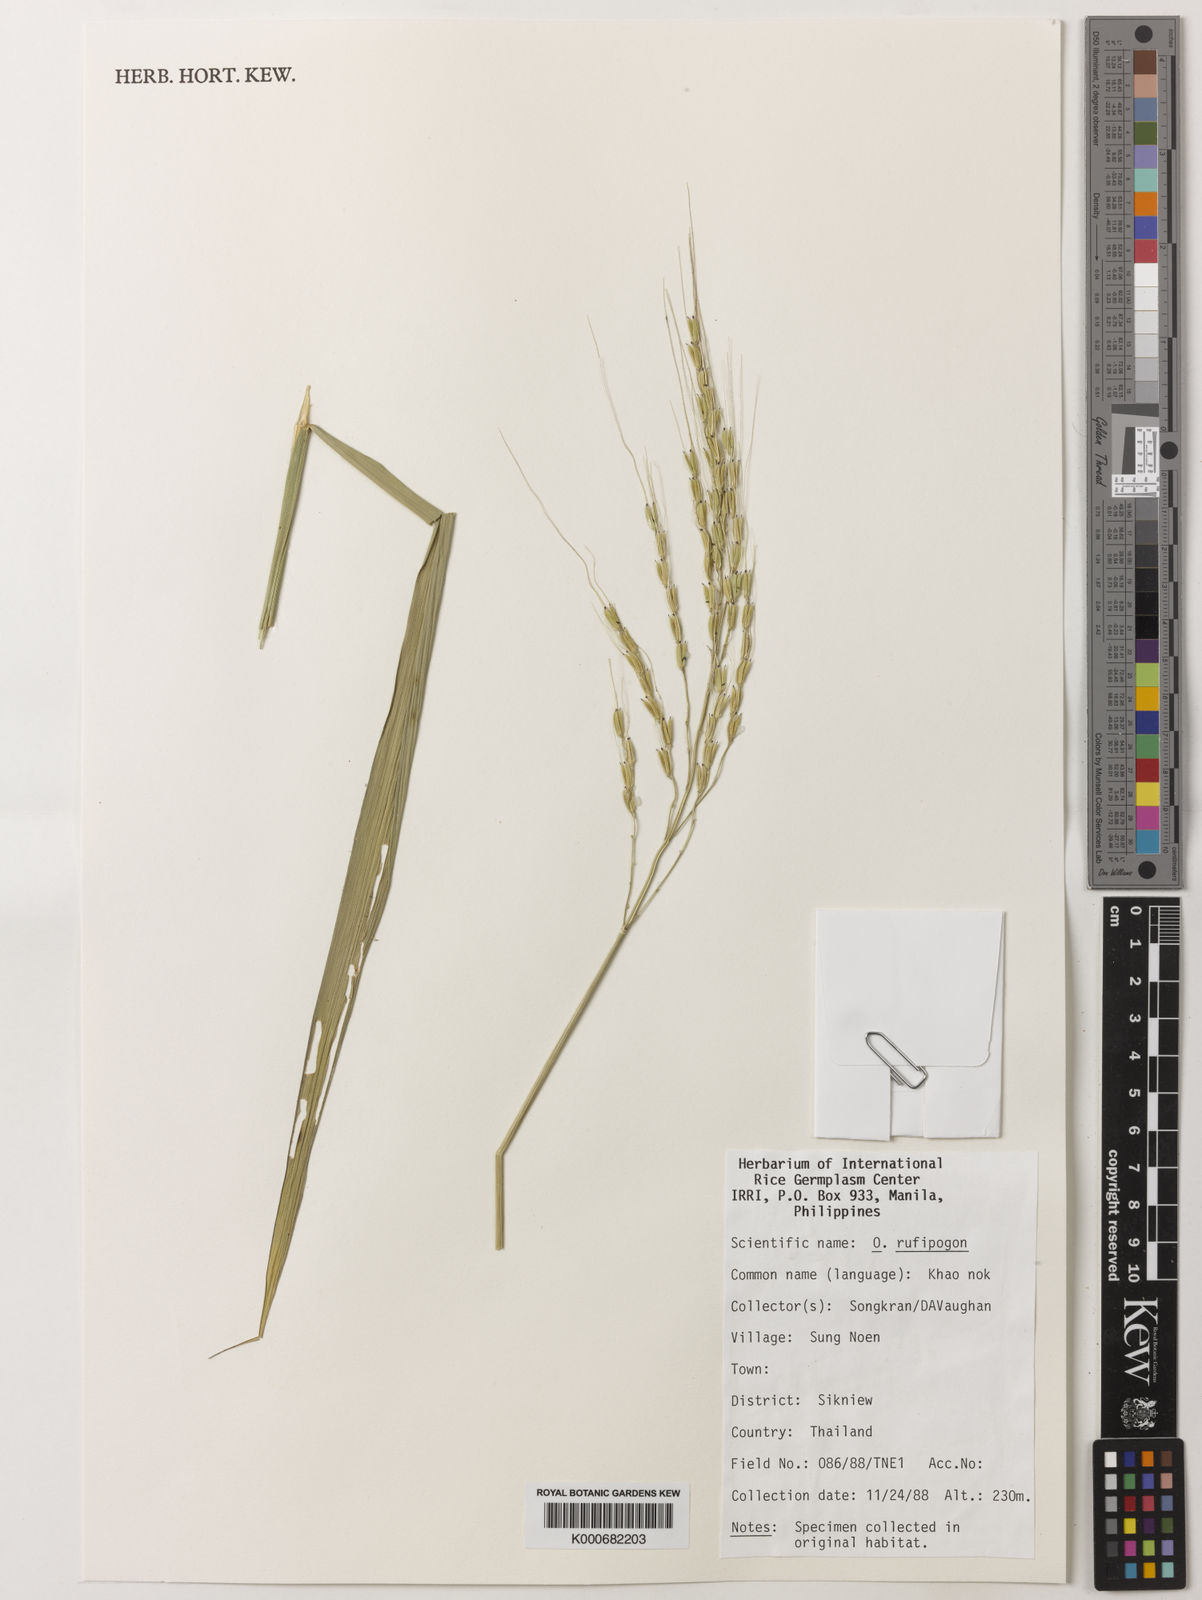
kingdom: Plantae
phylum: Tracheophyta
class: Liliopsida
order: Poales
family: Poaceae
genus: Oryza
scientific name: Oryza rufipogon
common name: Red rice
